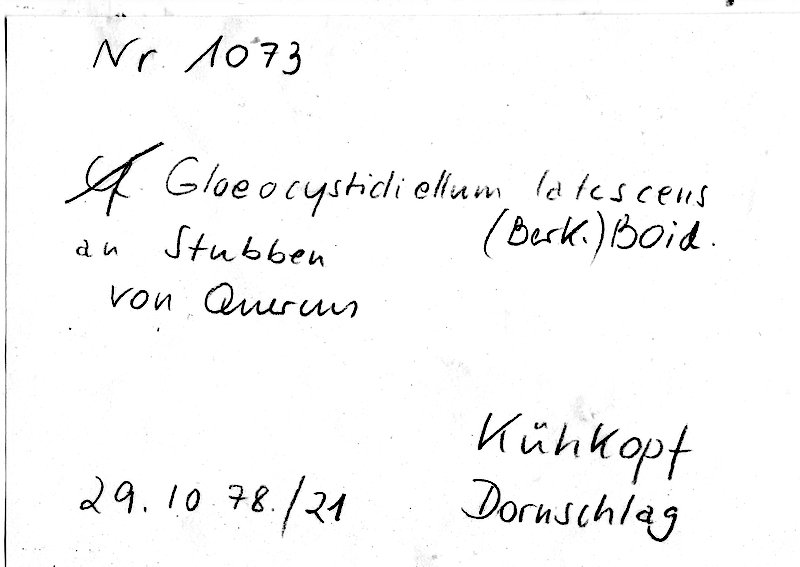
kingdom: Fungi
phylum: Basidiomycota
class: Agaricomycetes
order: Russulales
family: Peniophoraceae
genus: Gloiothele
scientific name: Gloiothele lactescens
